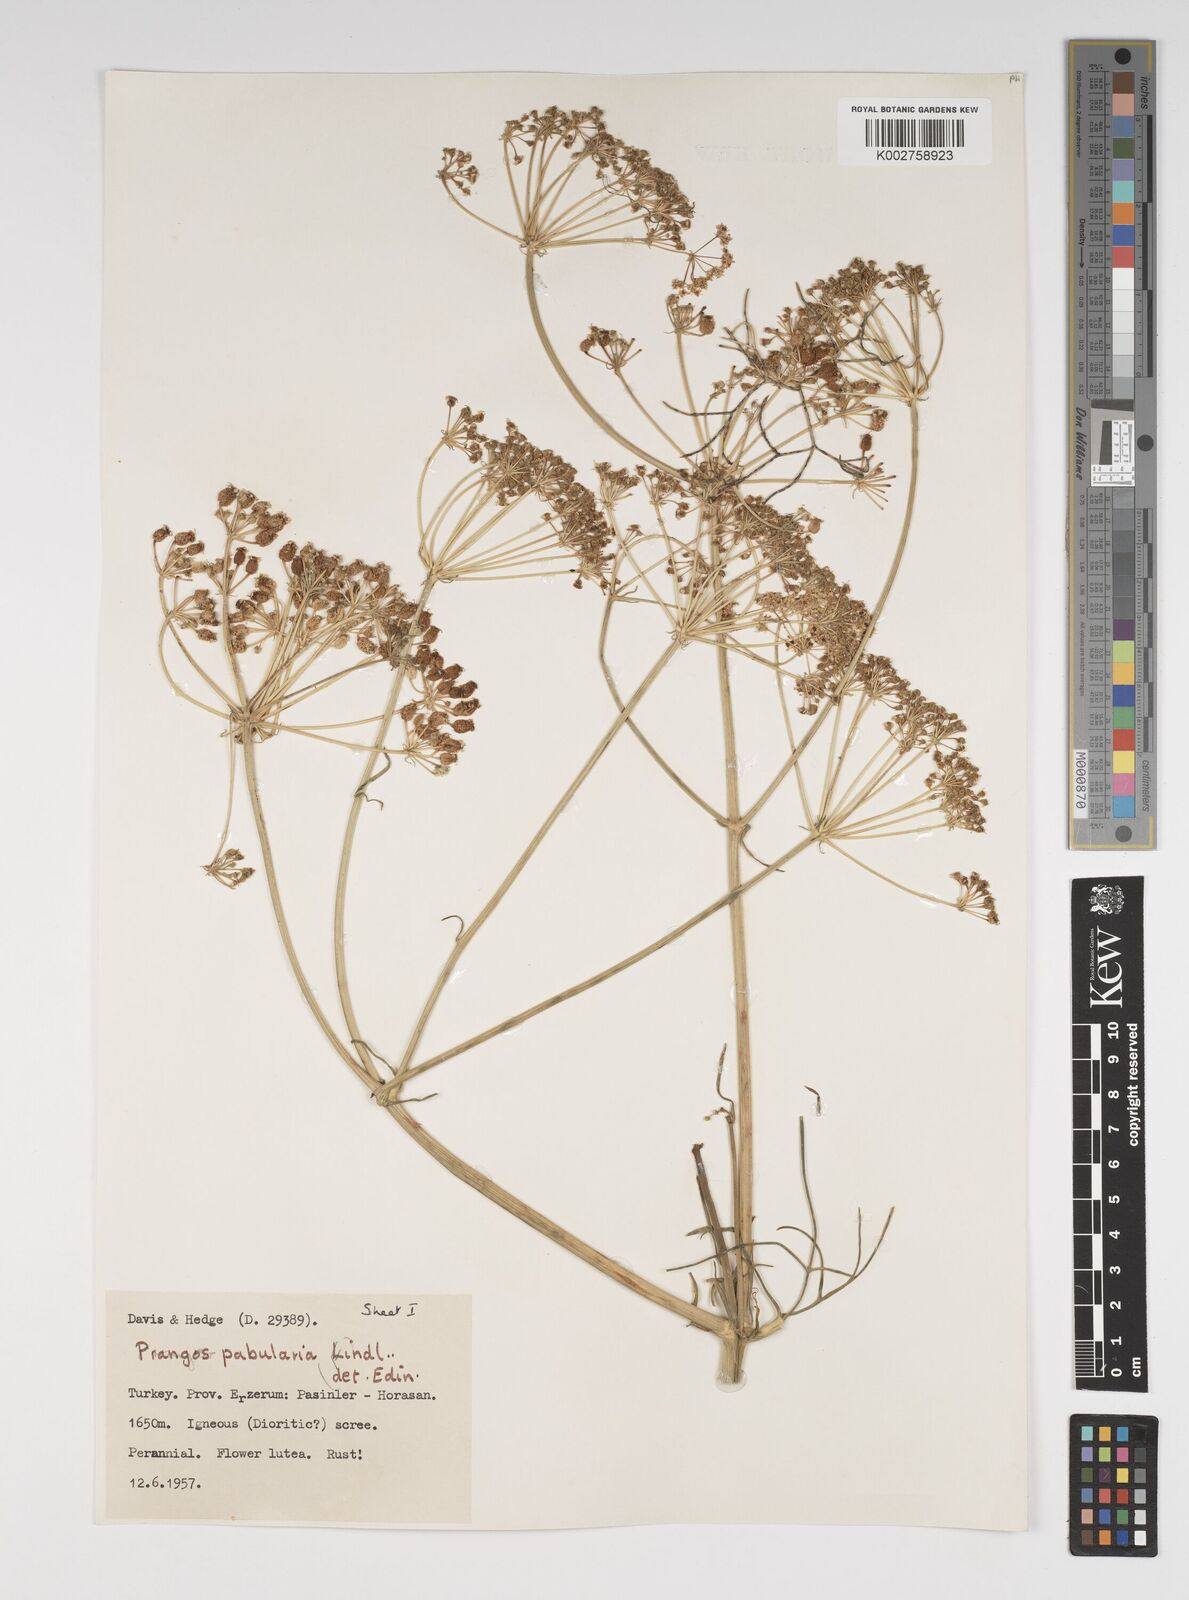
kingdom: Plantae
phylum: Tracheophyta
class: Magnoliopsida
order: Apiales
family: Apiaceae
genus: Prangos
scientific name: Prangos pabularia
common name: Yugan
